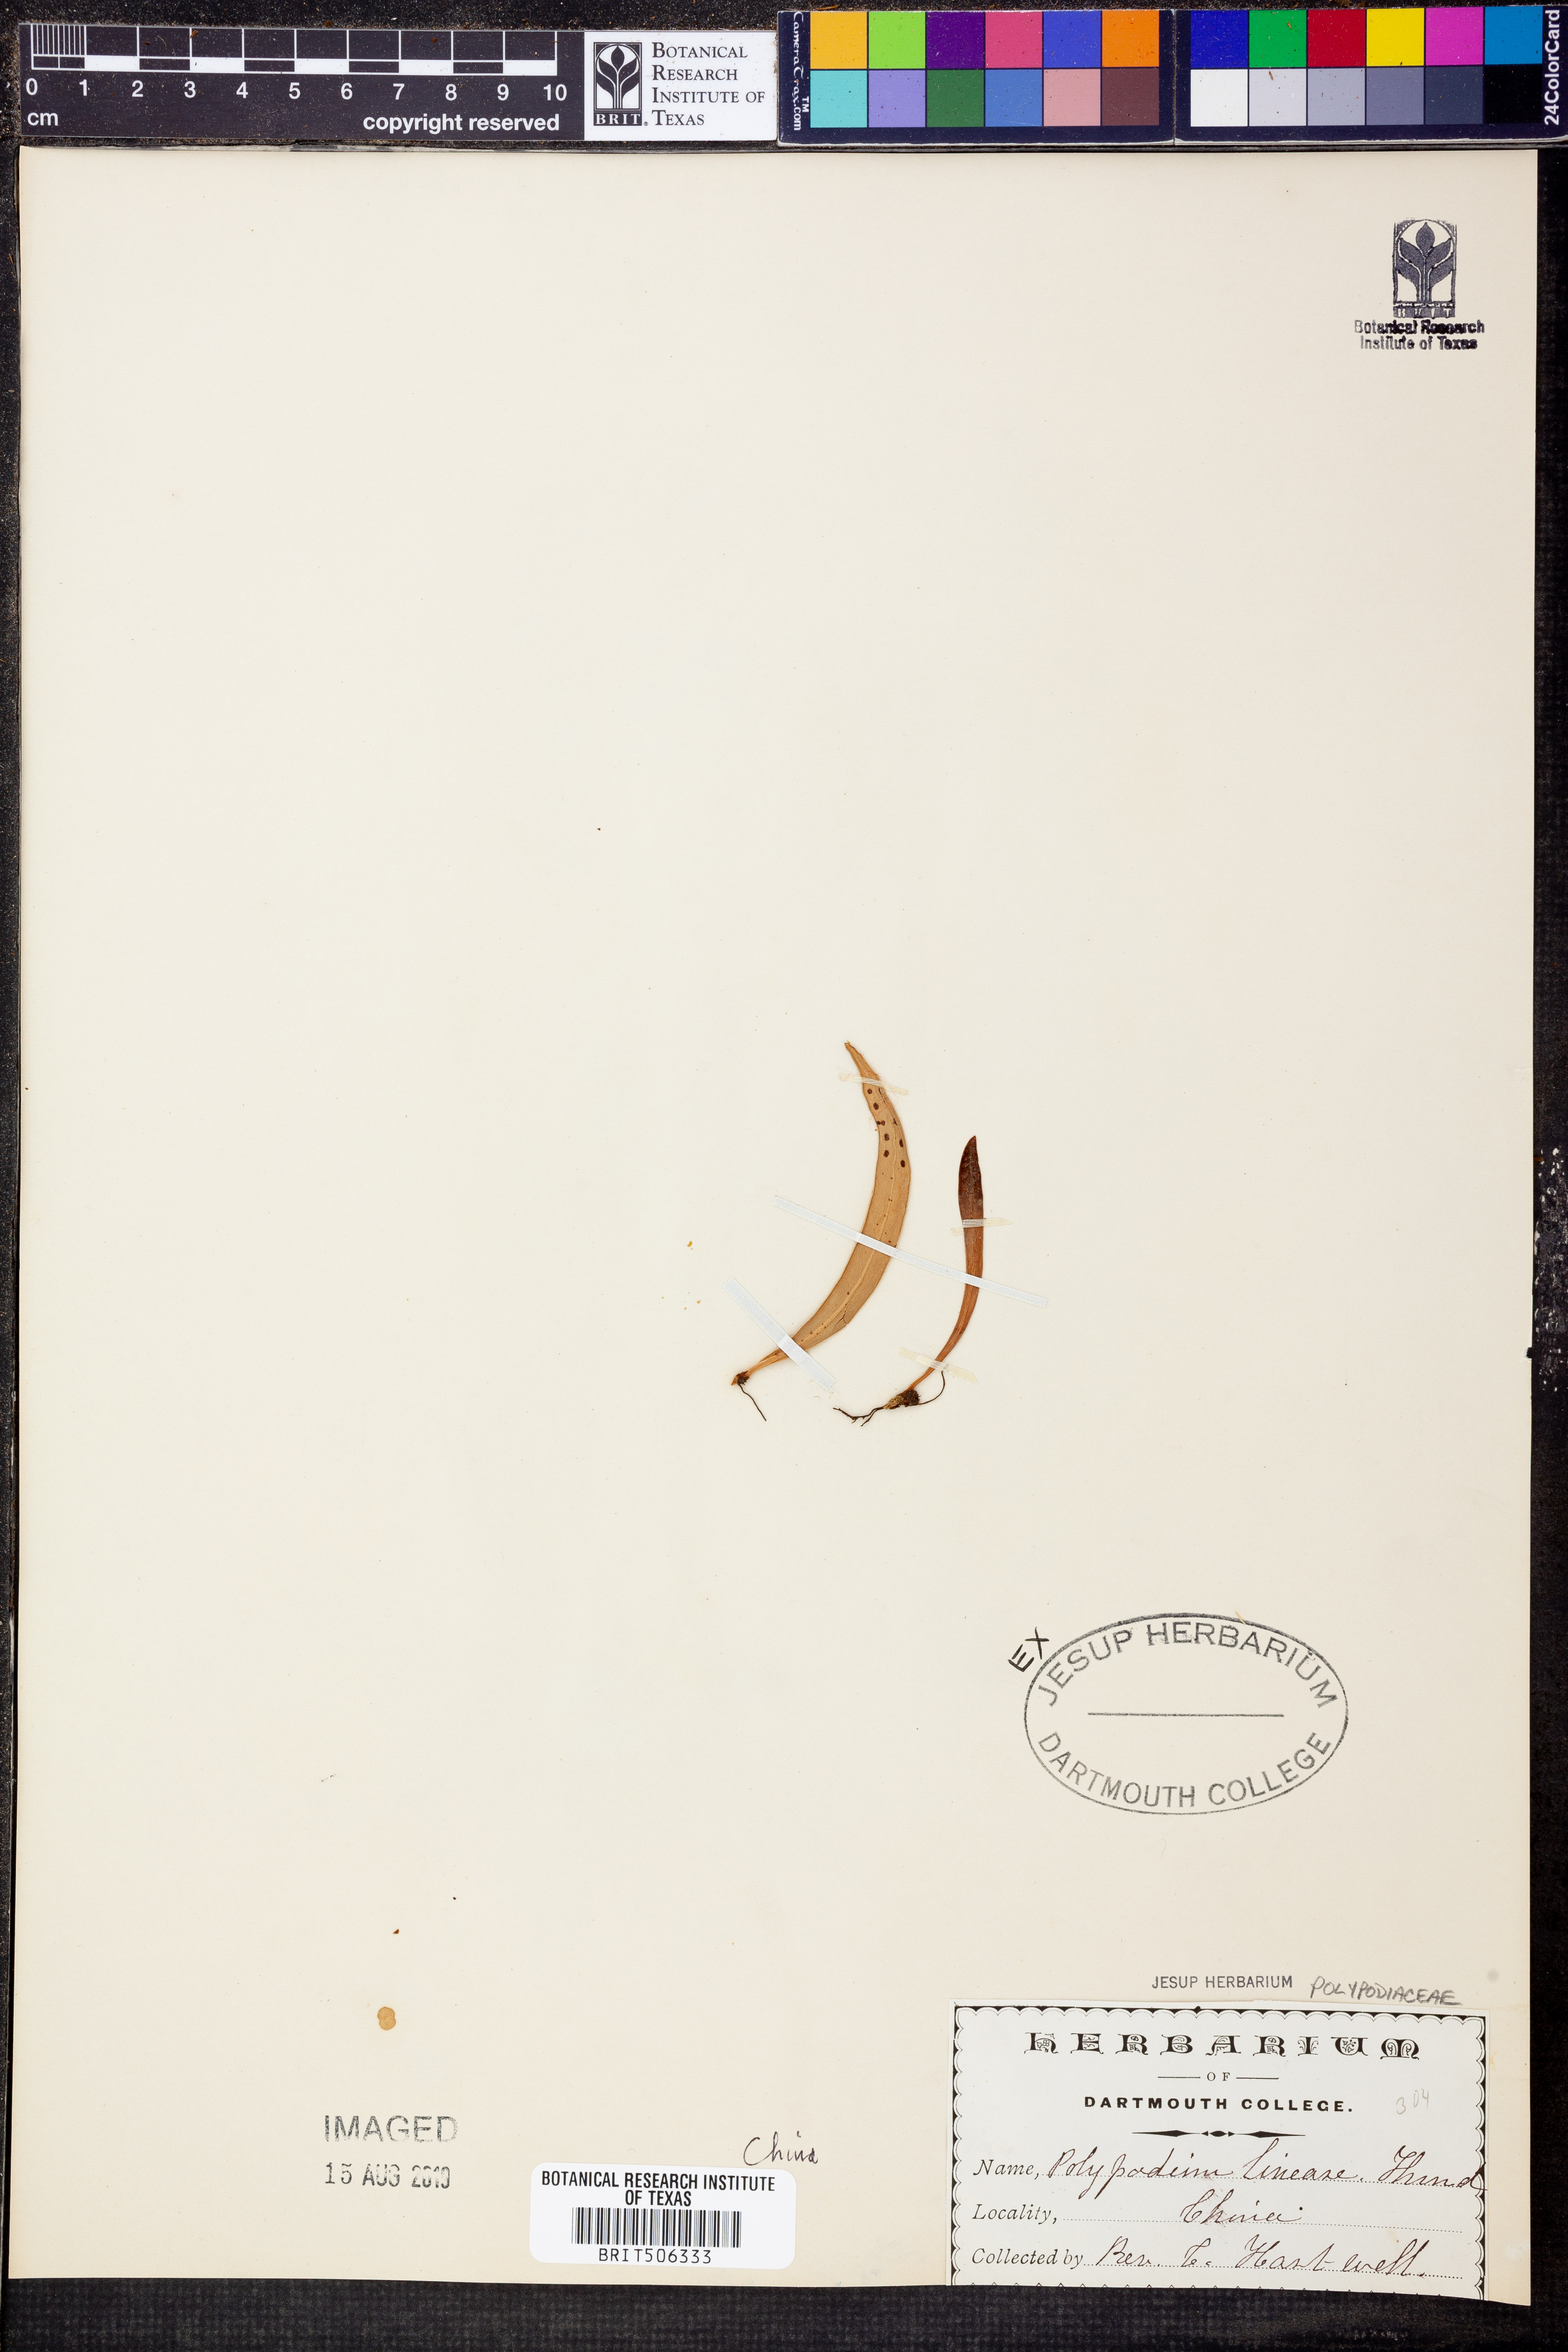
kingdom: Plantae
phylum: Tracheophyta
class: Polypodiopsida
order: Polypodiales
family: Polypodiaceae
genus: Lepisorus
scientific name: Lepisorus thunbergianus
